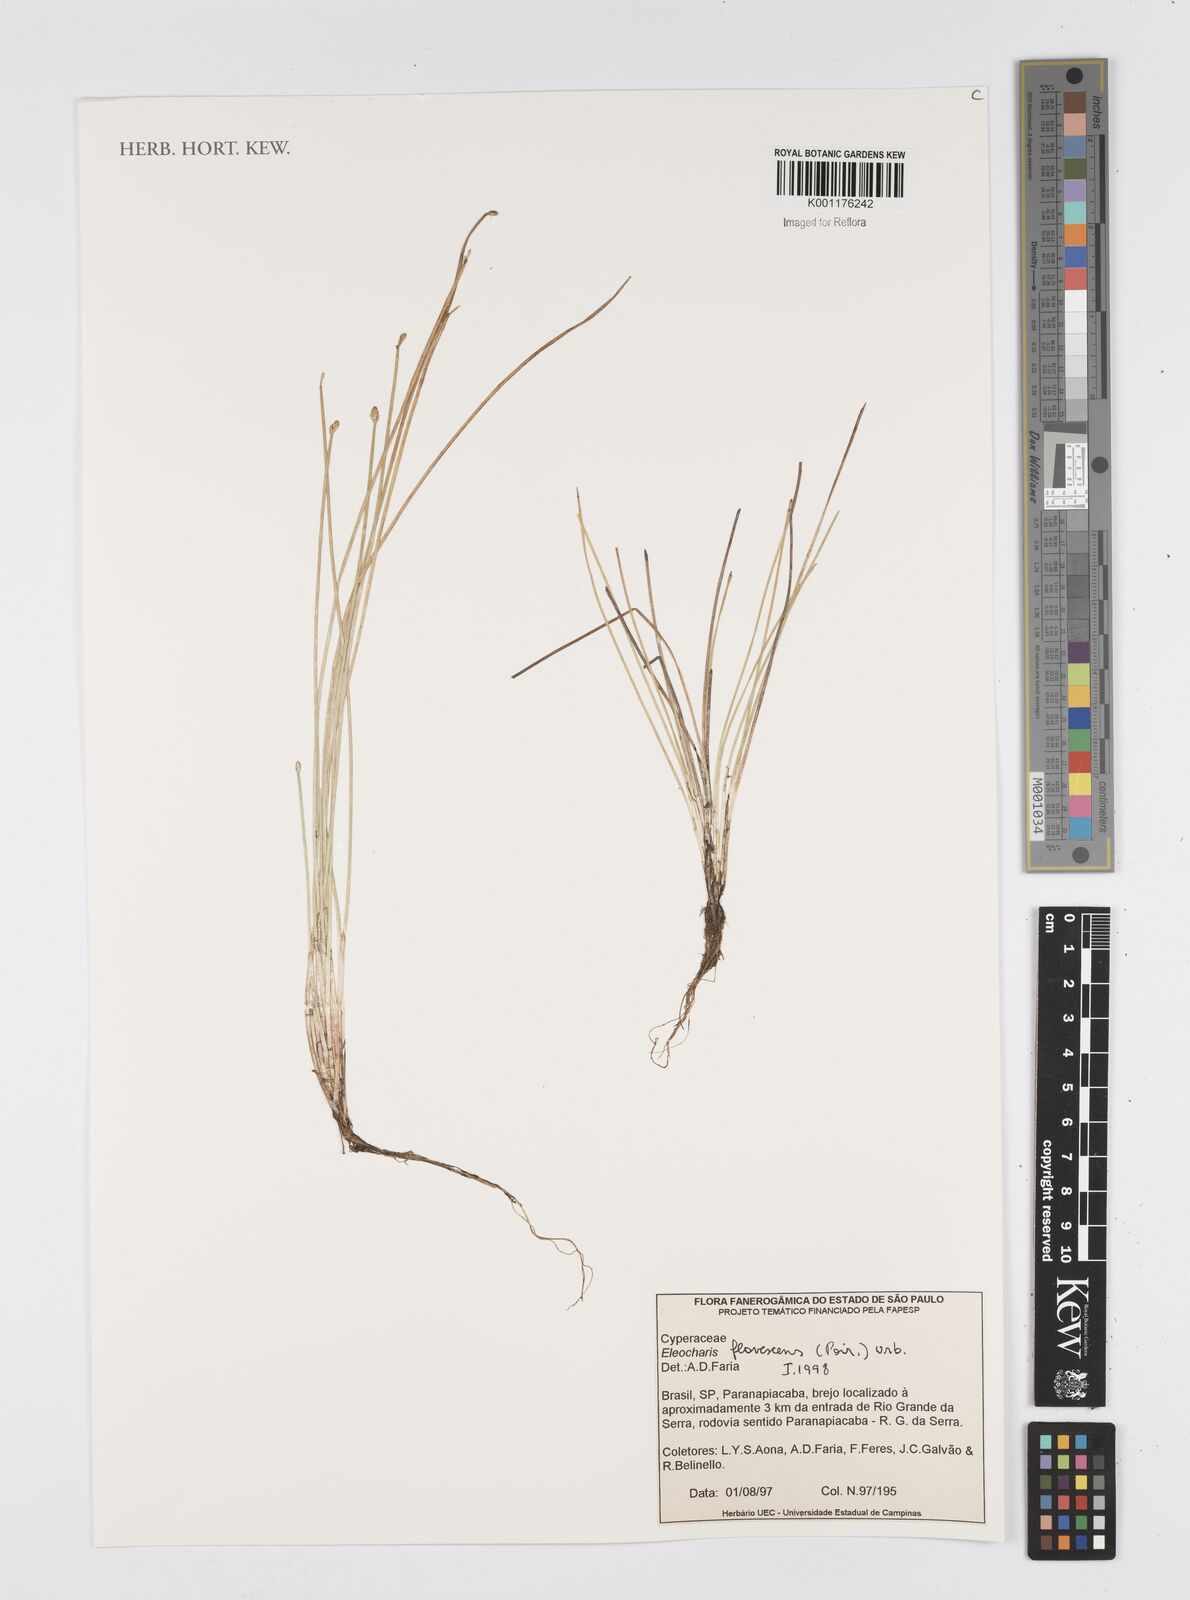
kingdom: Plantae
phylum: Tracheophyta
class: Liliopsida
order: Poales
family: Cyperaceae
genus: Eleocharis
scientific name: Eleocharis flavescens
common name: Yellow spikerush
